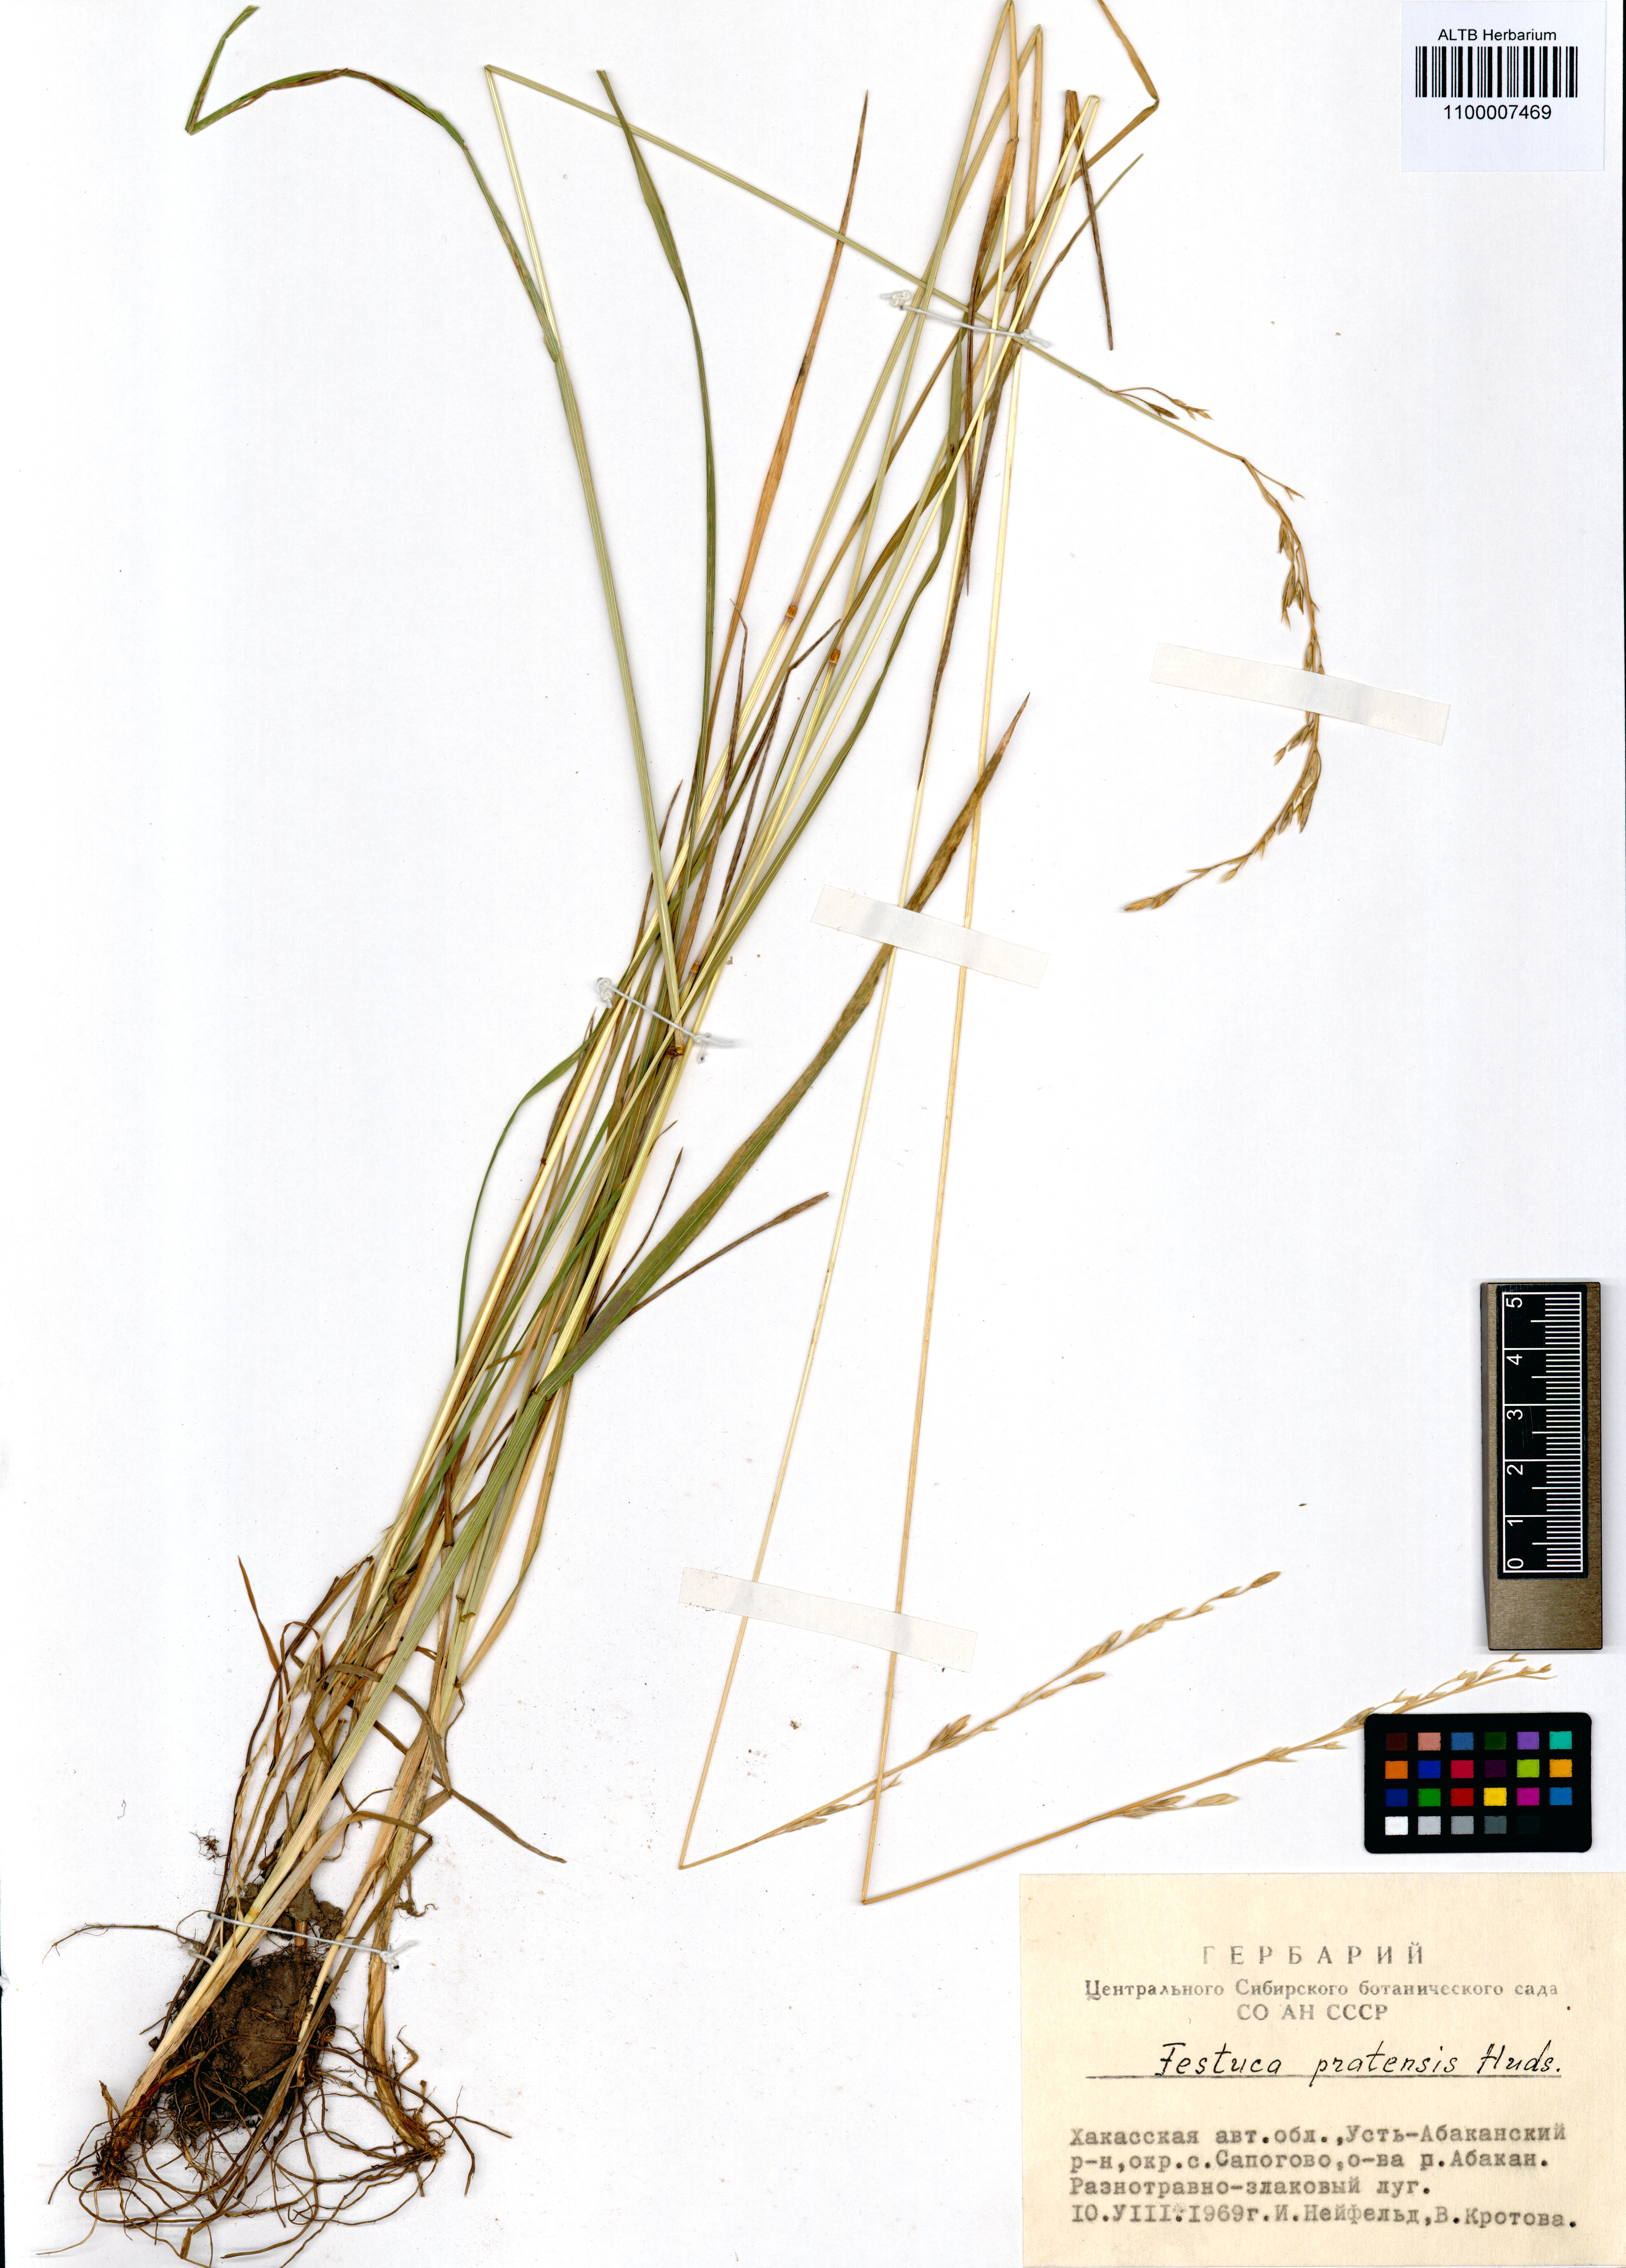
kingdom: Plantae
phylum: Tracheophyta
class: Liliopsida
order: Poales
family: Poaceae
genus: Lolium
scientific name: Lolium pratense
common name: Dover grass
